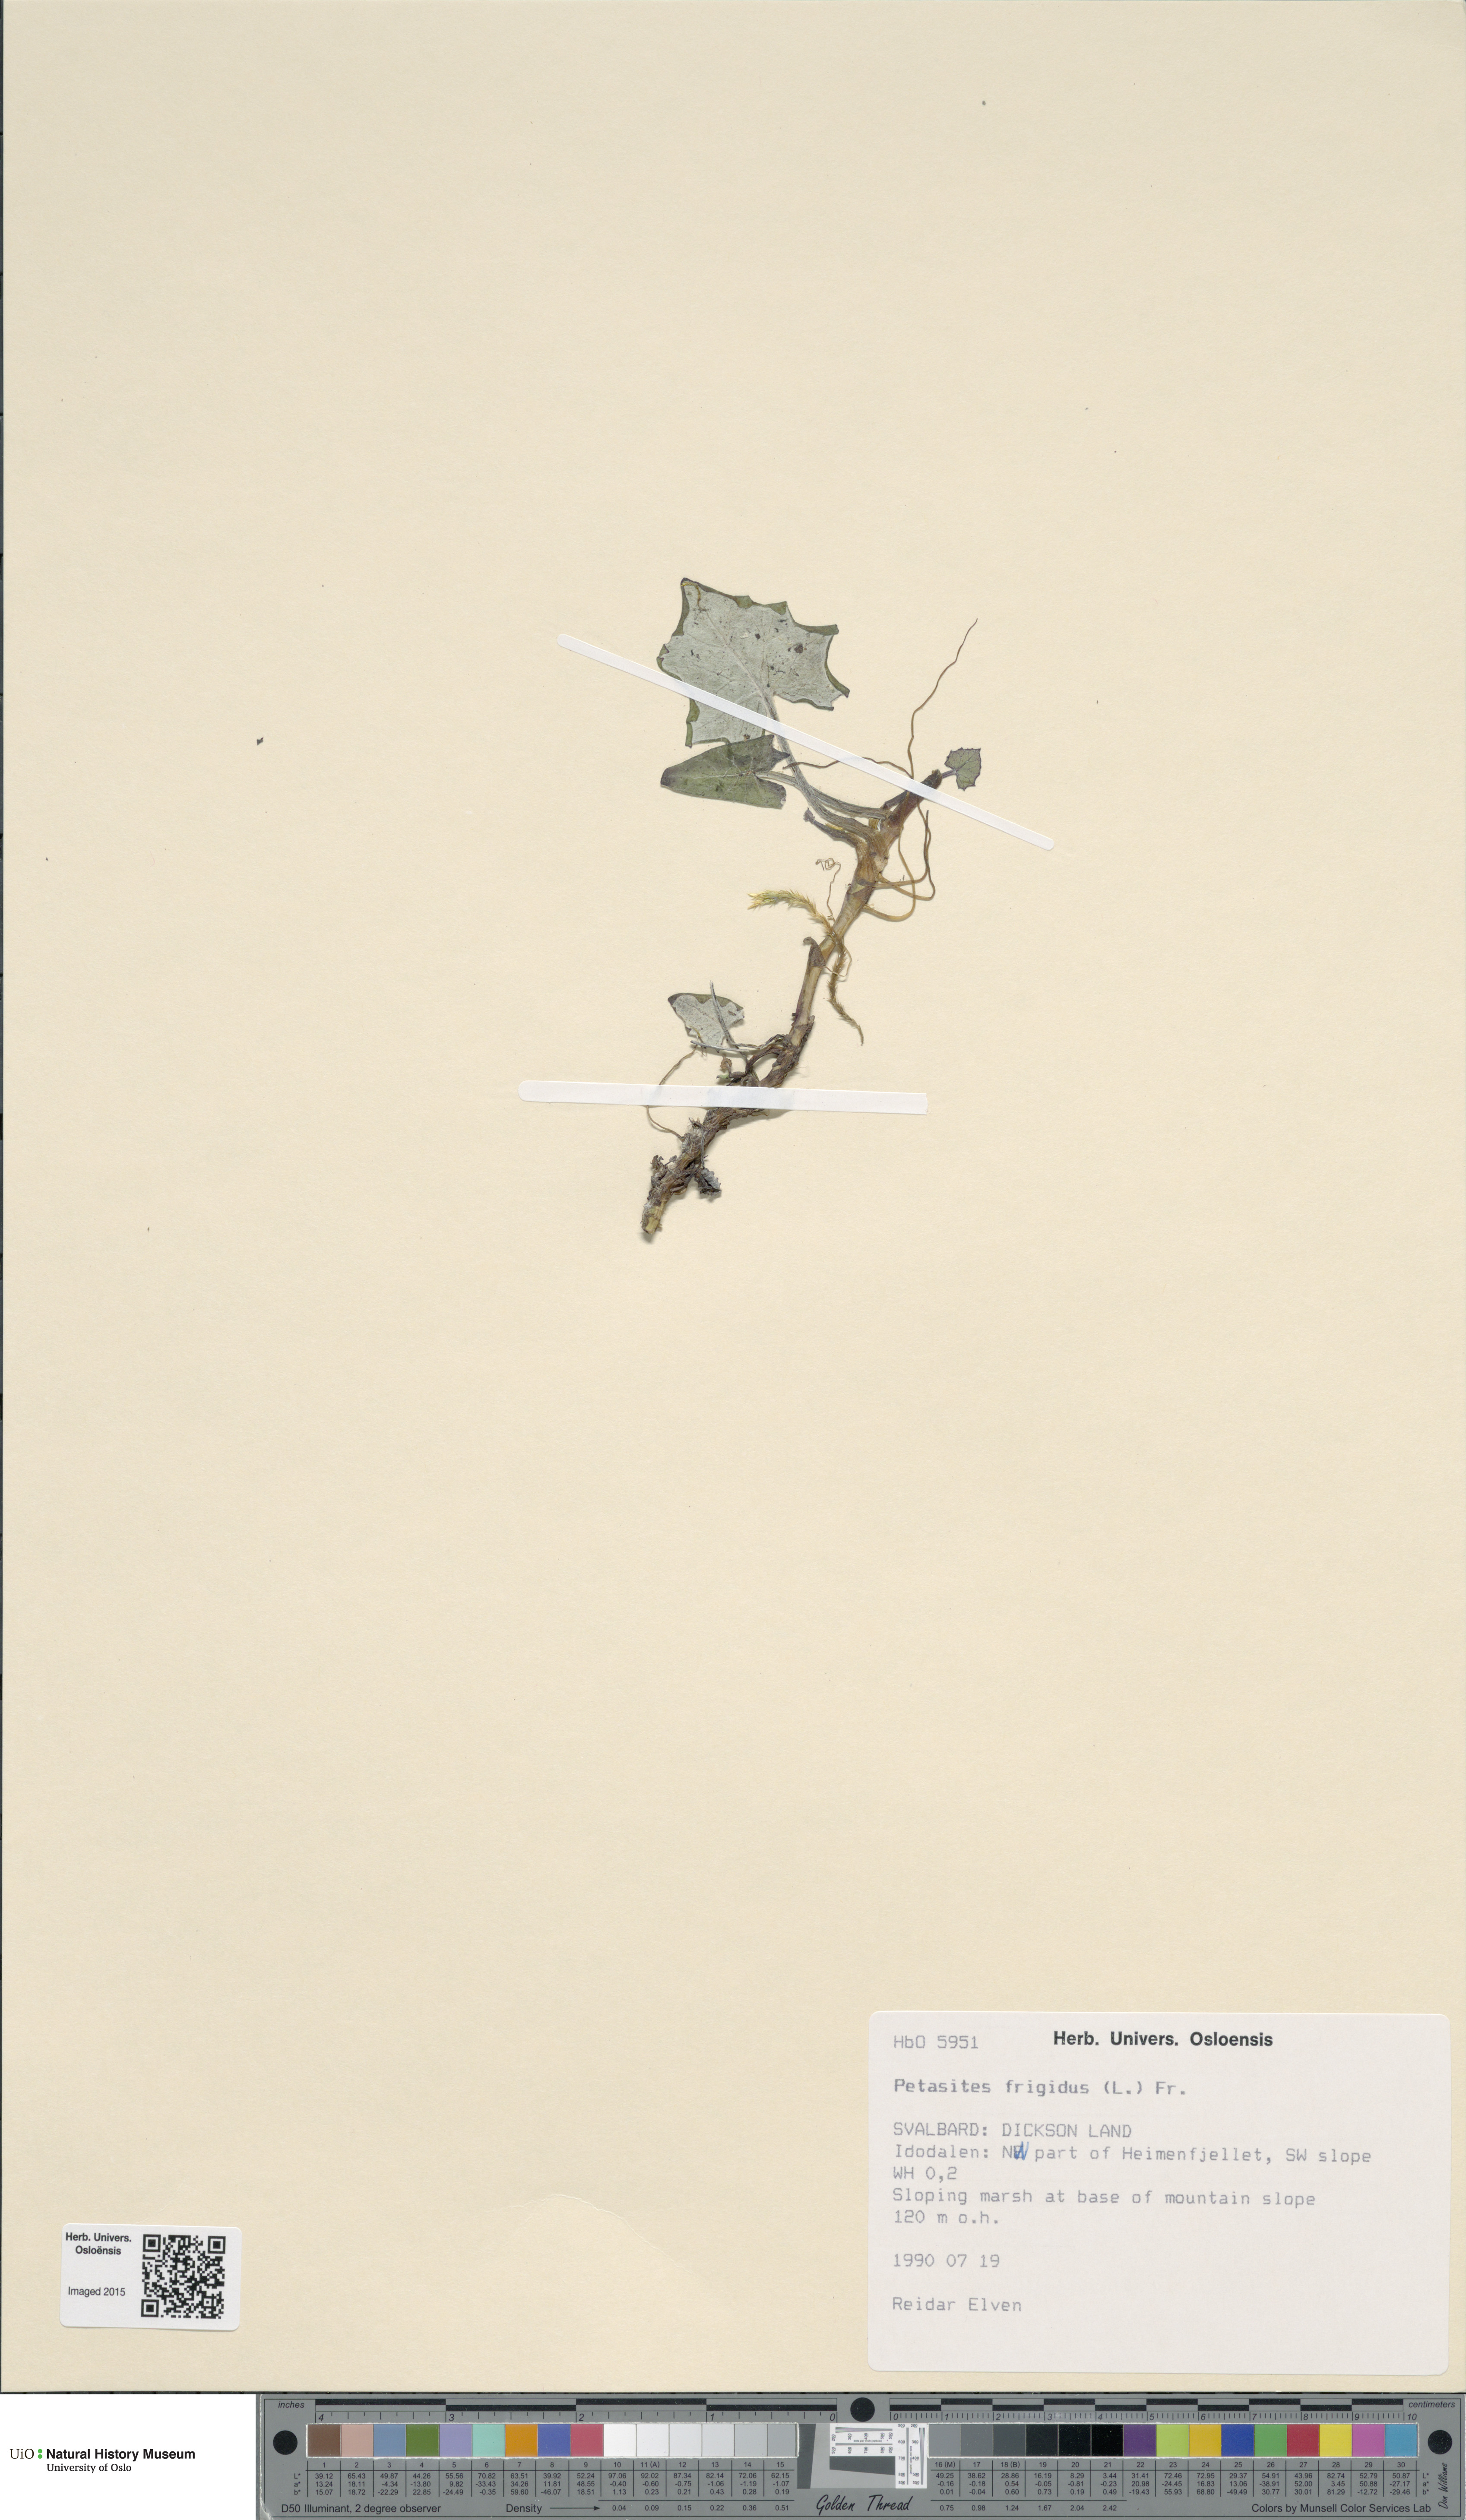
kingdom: Plantae
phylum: Tracheophyta
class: Magnoliopsida
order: Asterales
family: Asteraceae
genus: Petasites
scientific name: Petasites frigidus
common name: Arctic butterbur
